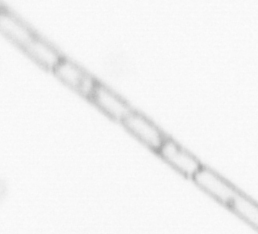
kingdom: Chromista
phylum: Ochrophyta
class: Bacillariophyceae
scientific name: Bacillariophyceae
